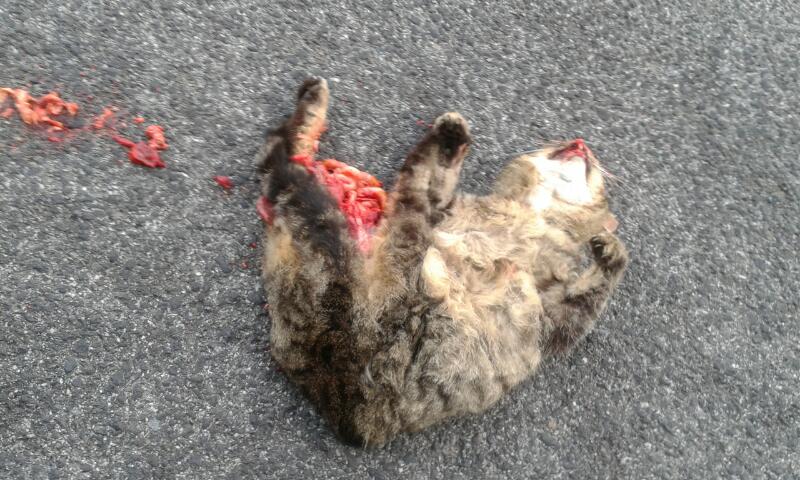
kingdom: Animalia
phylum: Chordata
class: Mammalia
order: Carnivora
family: Felidae
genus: Felis
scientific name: Felis catus
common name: Domestic cat
